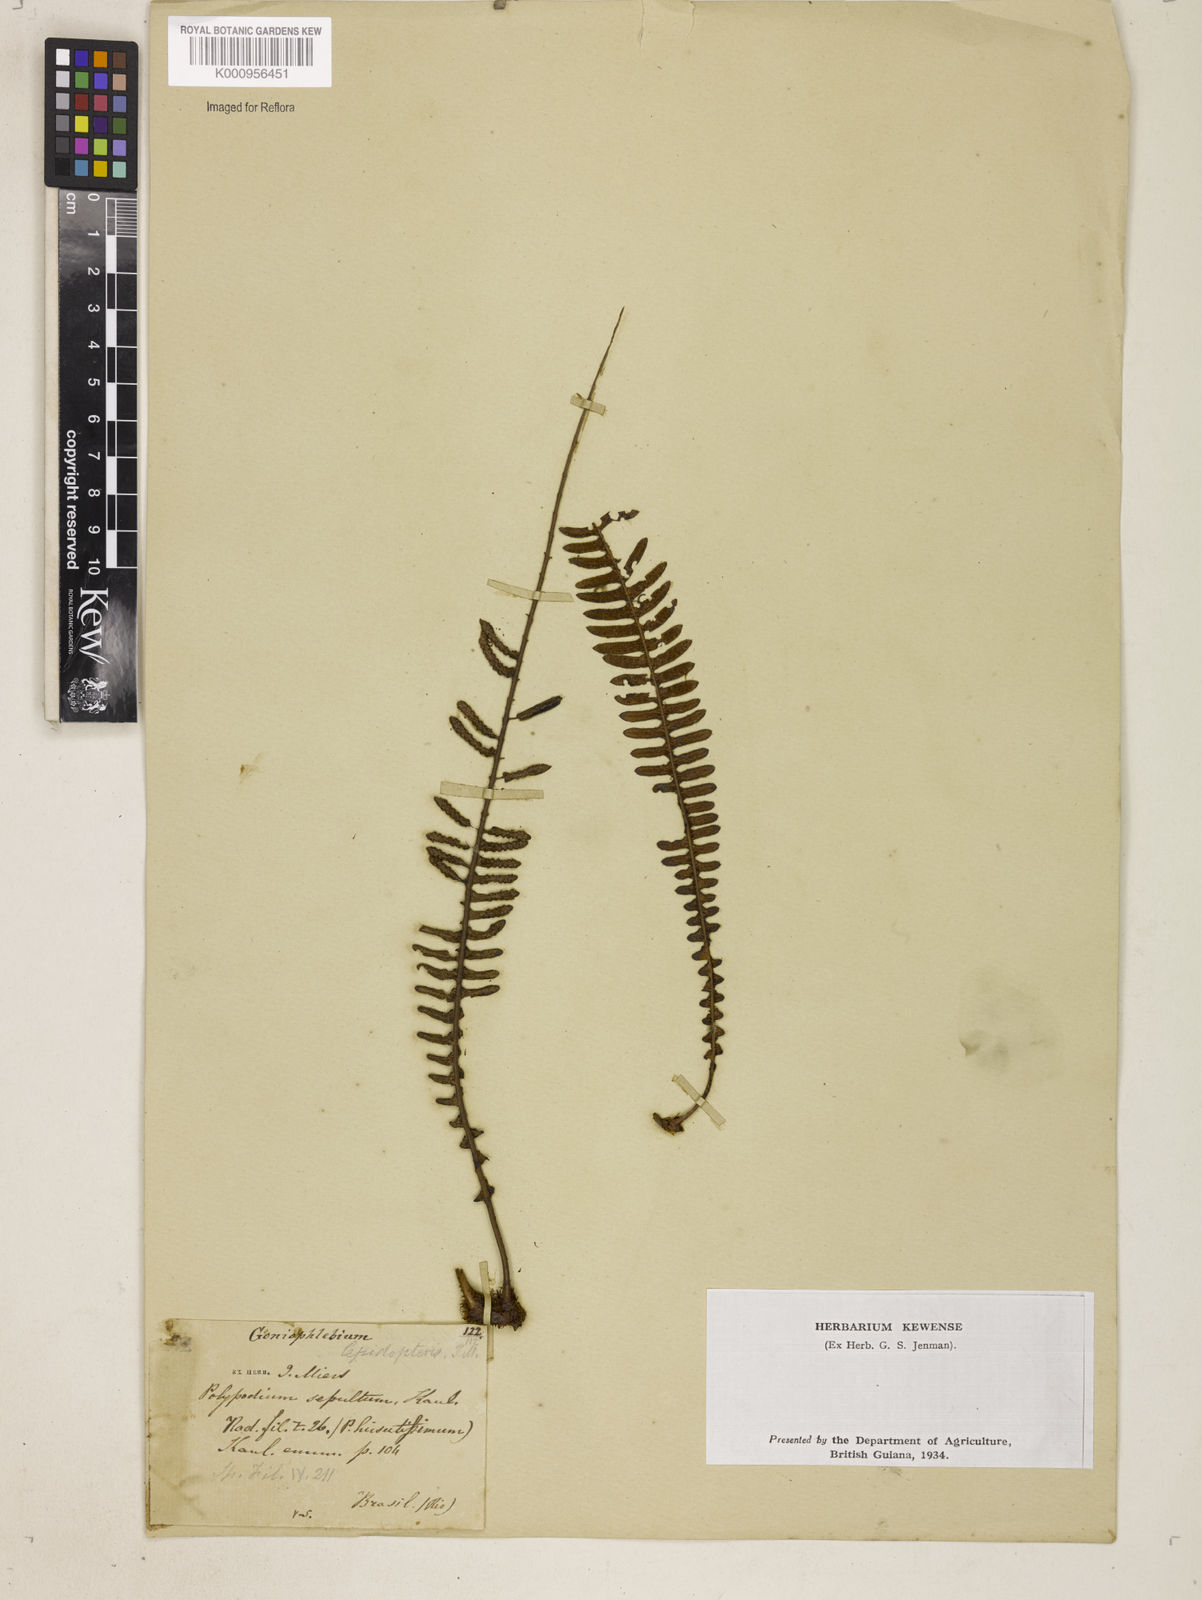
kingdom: Plantae
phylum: Tracheophyta
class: Polypodiopsida
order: Polypodiales
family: Polypodiaceae
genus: Polypodium
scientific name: Polypodium
